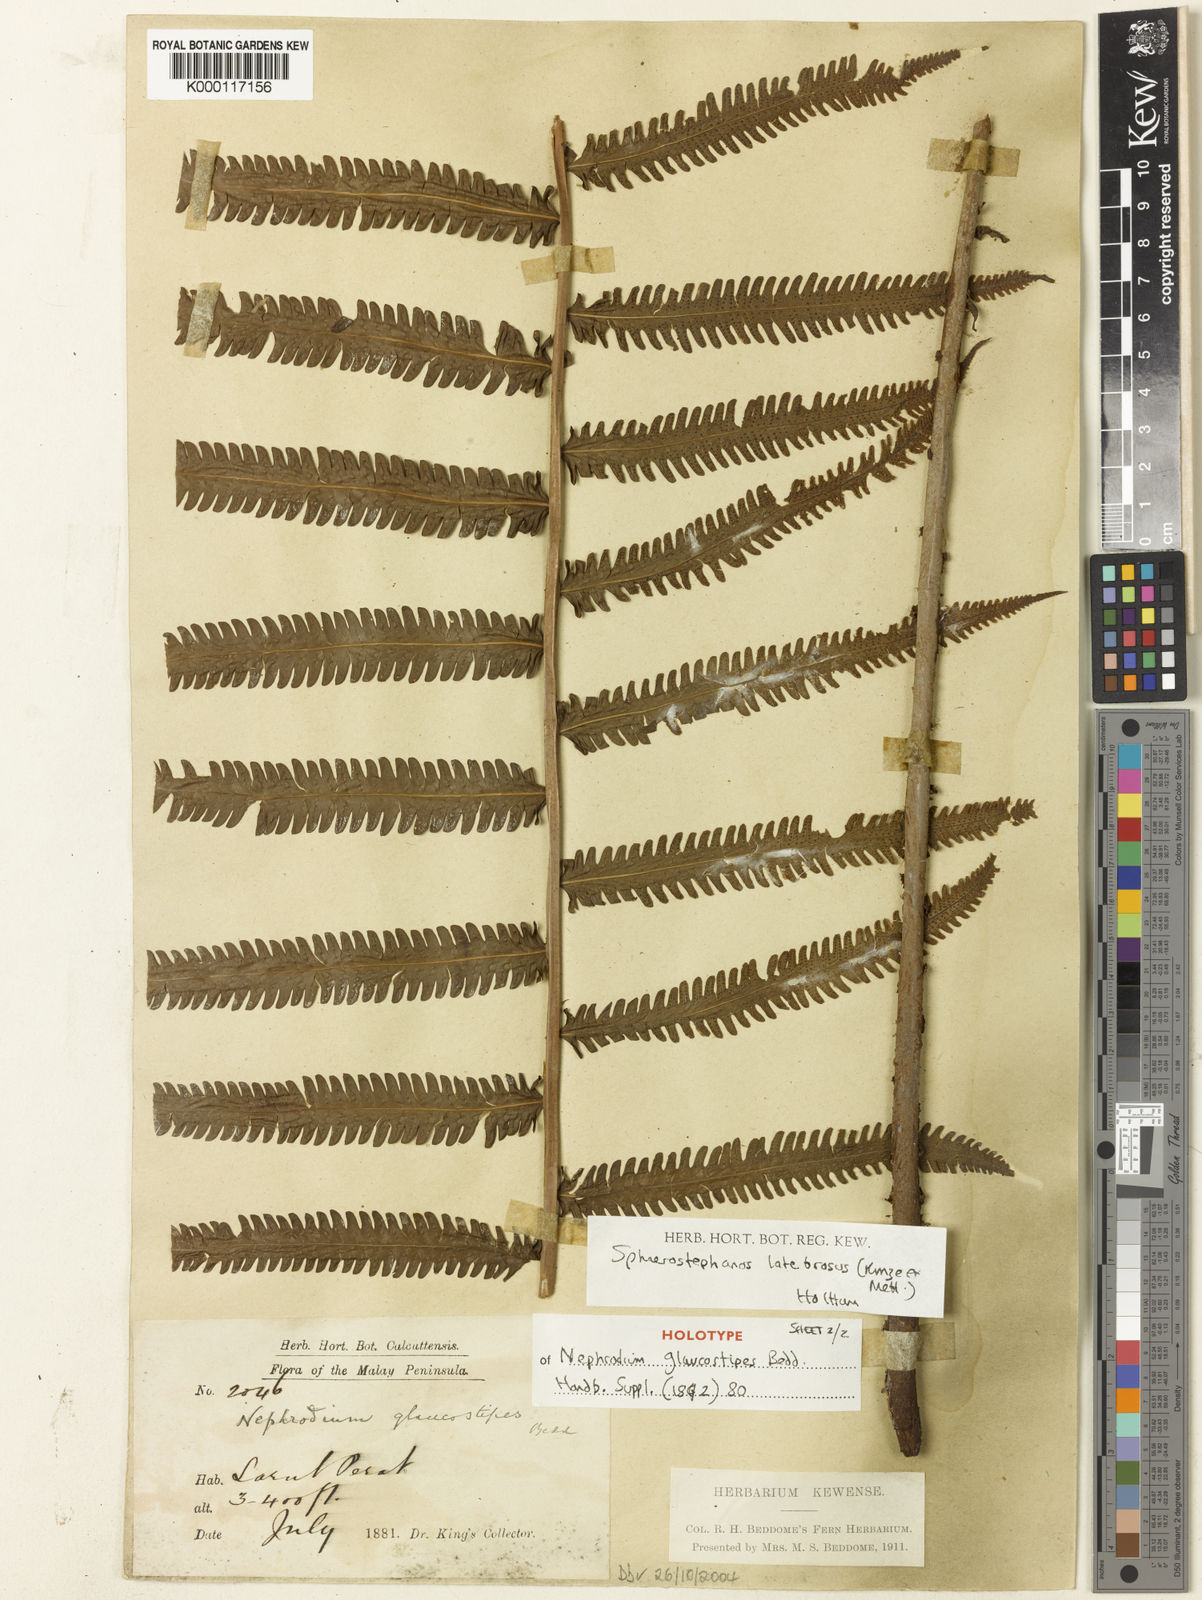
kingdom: Plantae
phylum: Tracheophyta
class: Polypodiopsida
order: Polypodiales
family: Thelypteridaceae
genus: Sphaerostephanos
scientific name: Sphaerostephanos latebrosus
